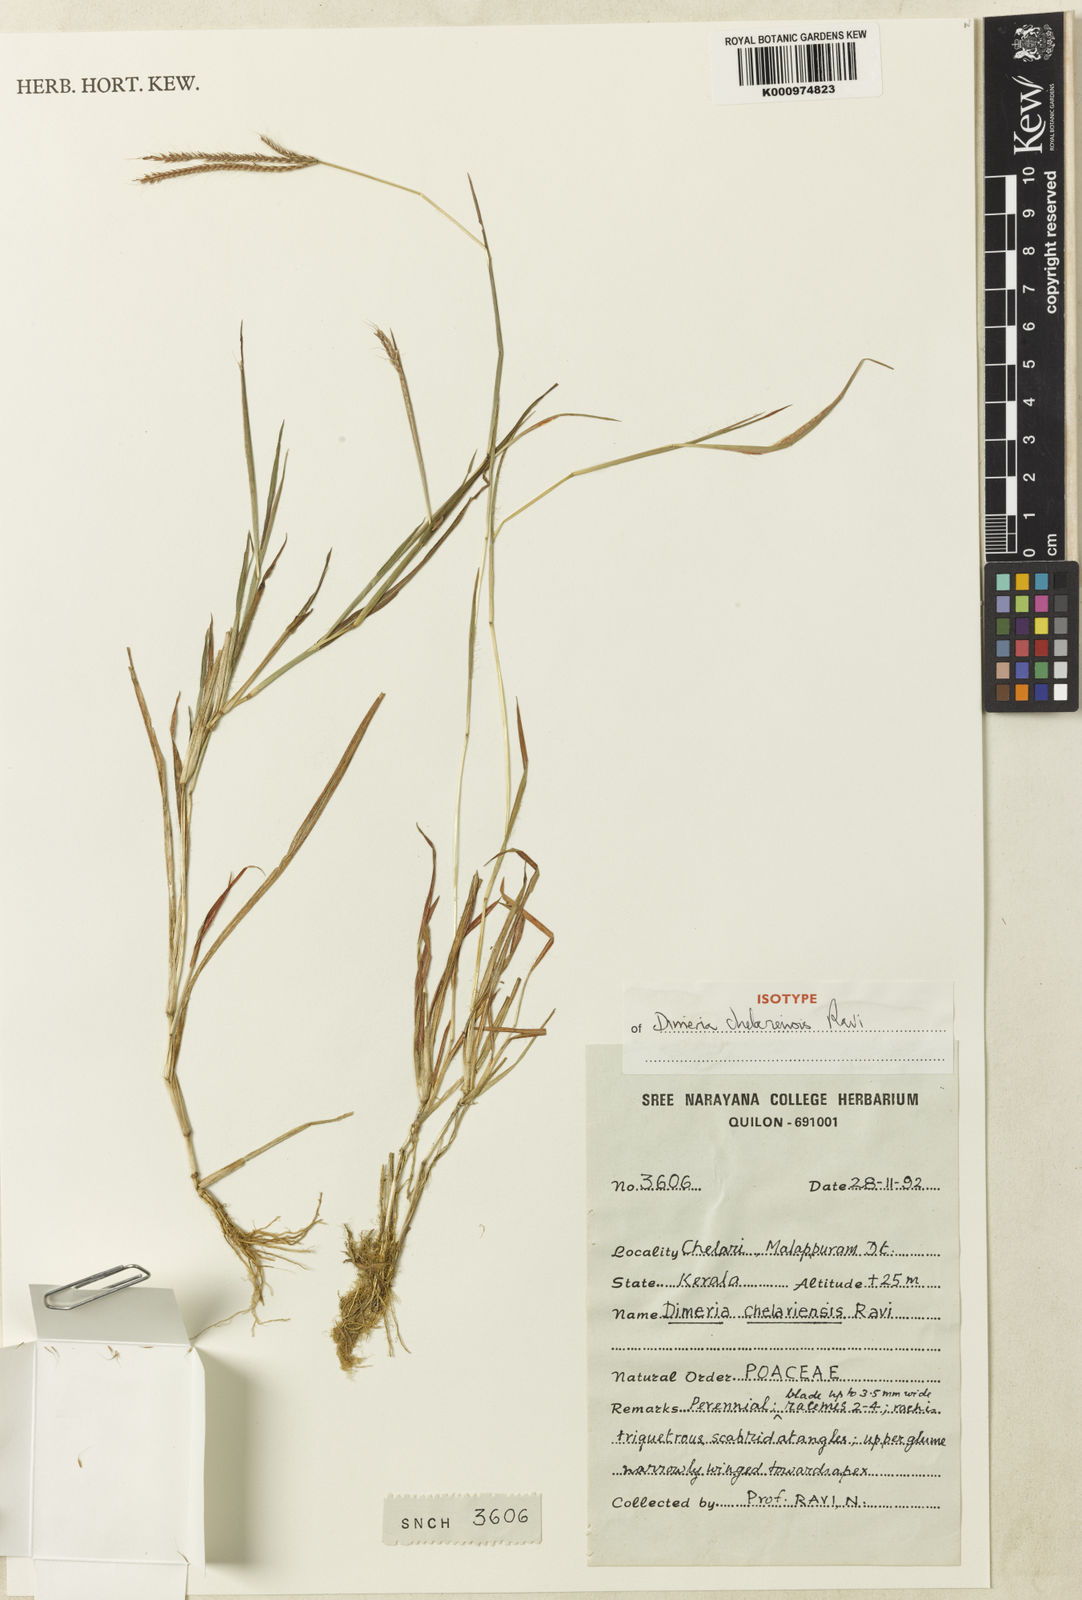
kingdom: Plantae
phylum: Tracheophyta
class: Liliopsida
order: Poales
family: Poaceae
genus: Dimeria
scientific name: Dimeria chelariensis
